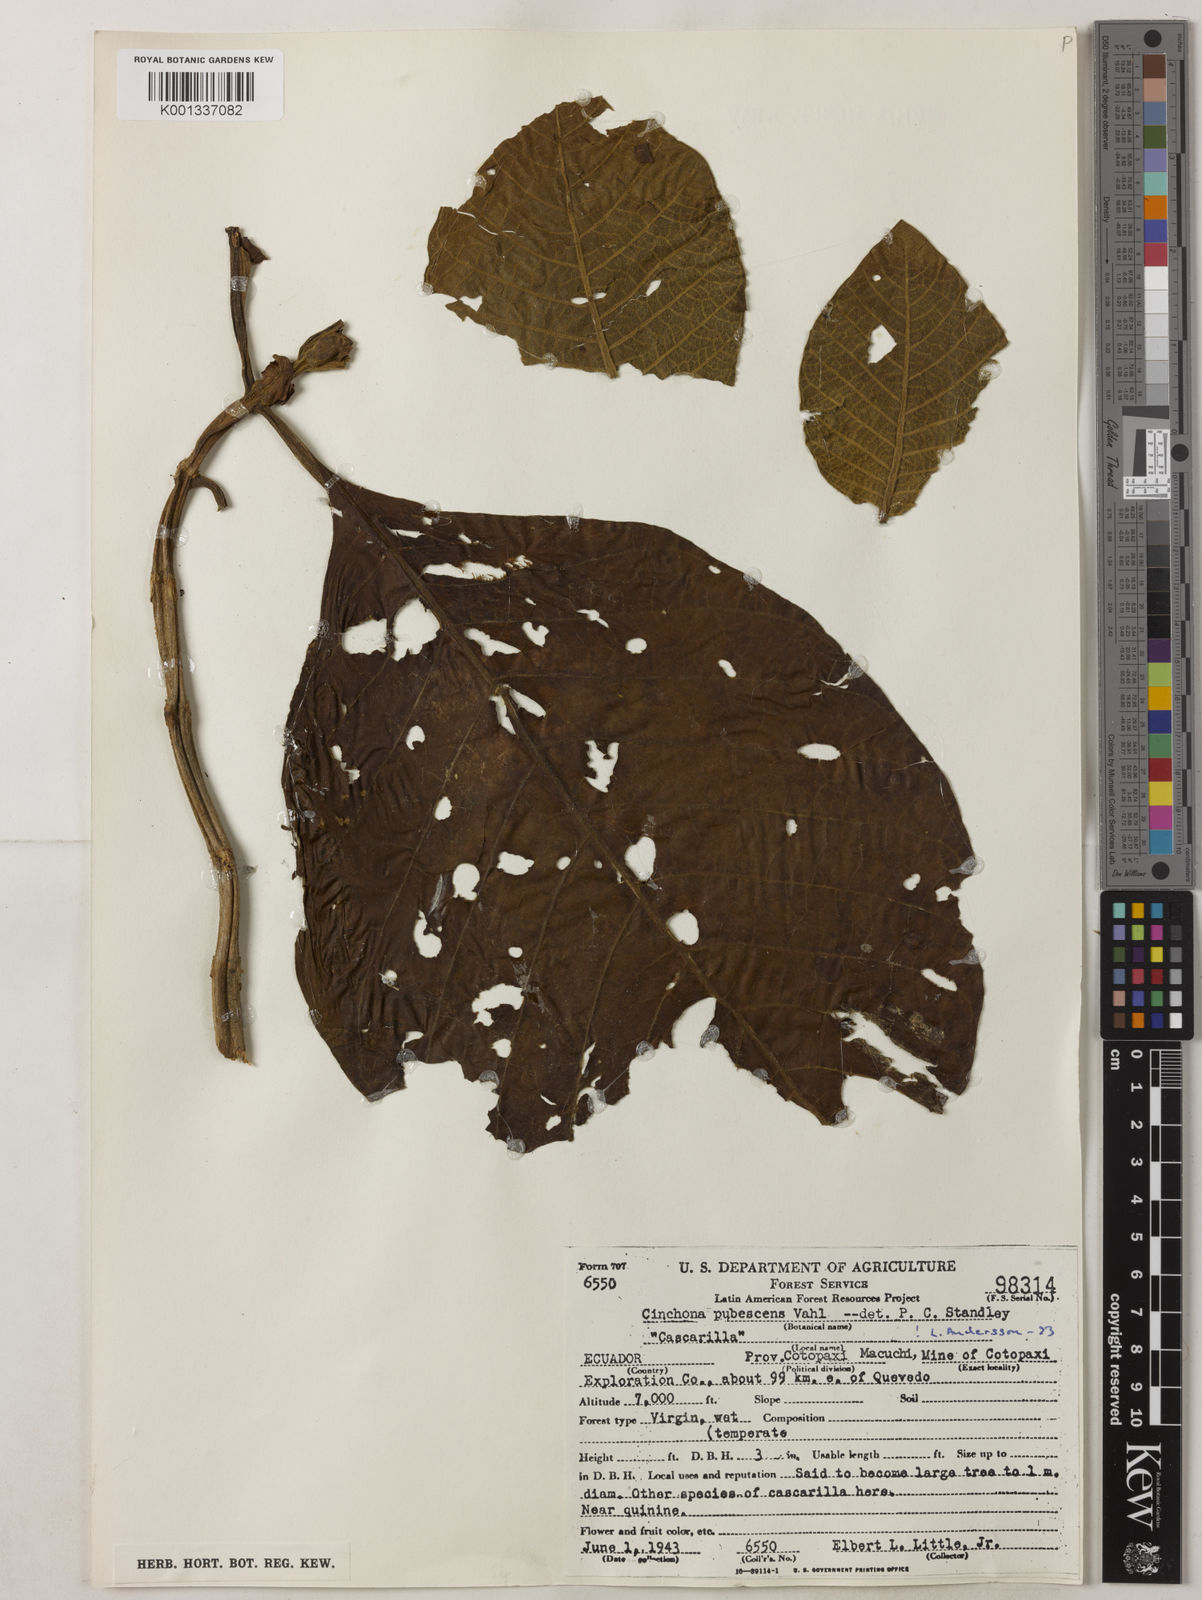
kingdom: Plantae
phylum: Tracheophyta
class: Magnoliopsida
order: Gentianales
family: Rubiaceae
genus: Cinchona
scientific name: Cinchona pubescens
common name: Quinine
